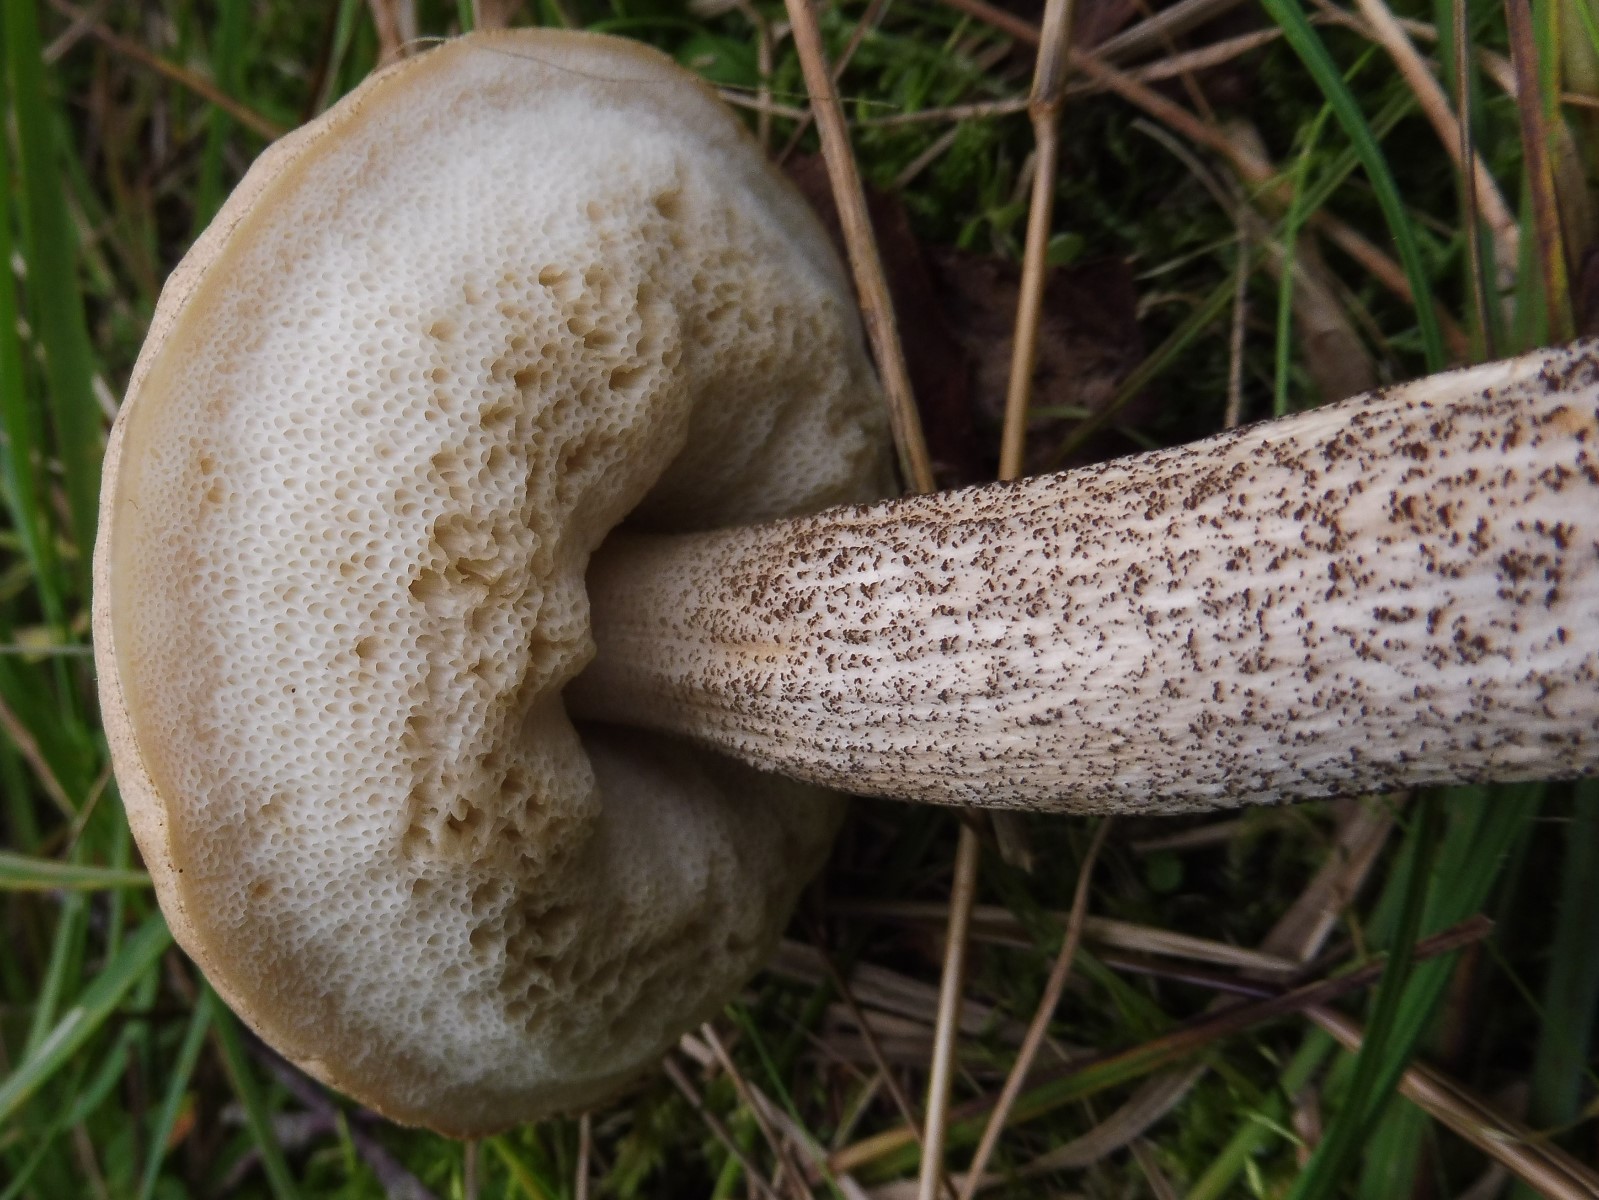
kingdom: Fungi
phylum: Basidiomycota
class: Agaricomycetes
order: Boletales
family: Boletaceae
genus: Leccinum
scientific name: Leccinum cyaneobasileucum
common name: almindelig skælrørhat
